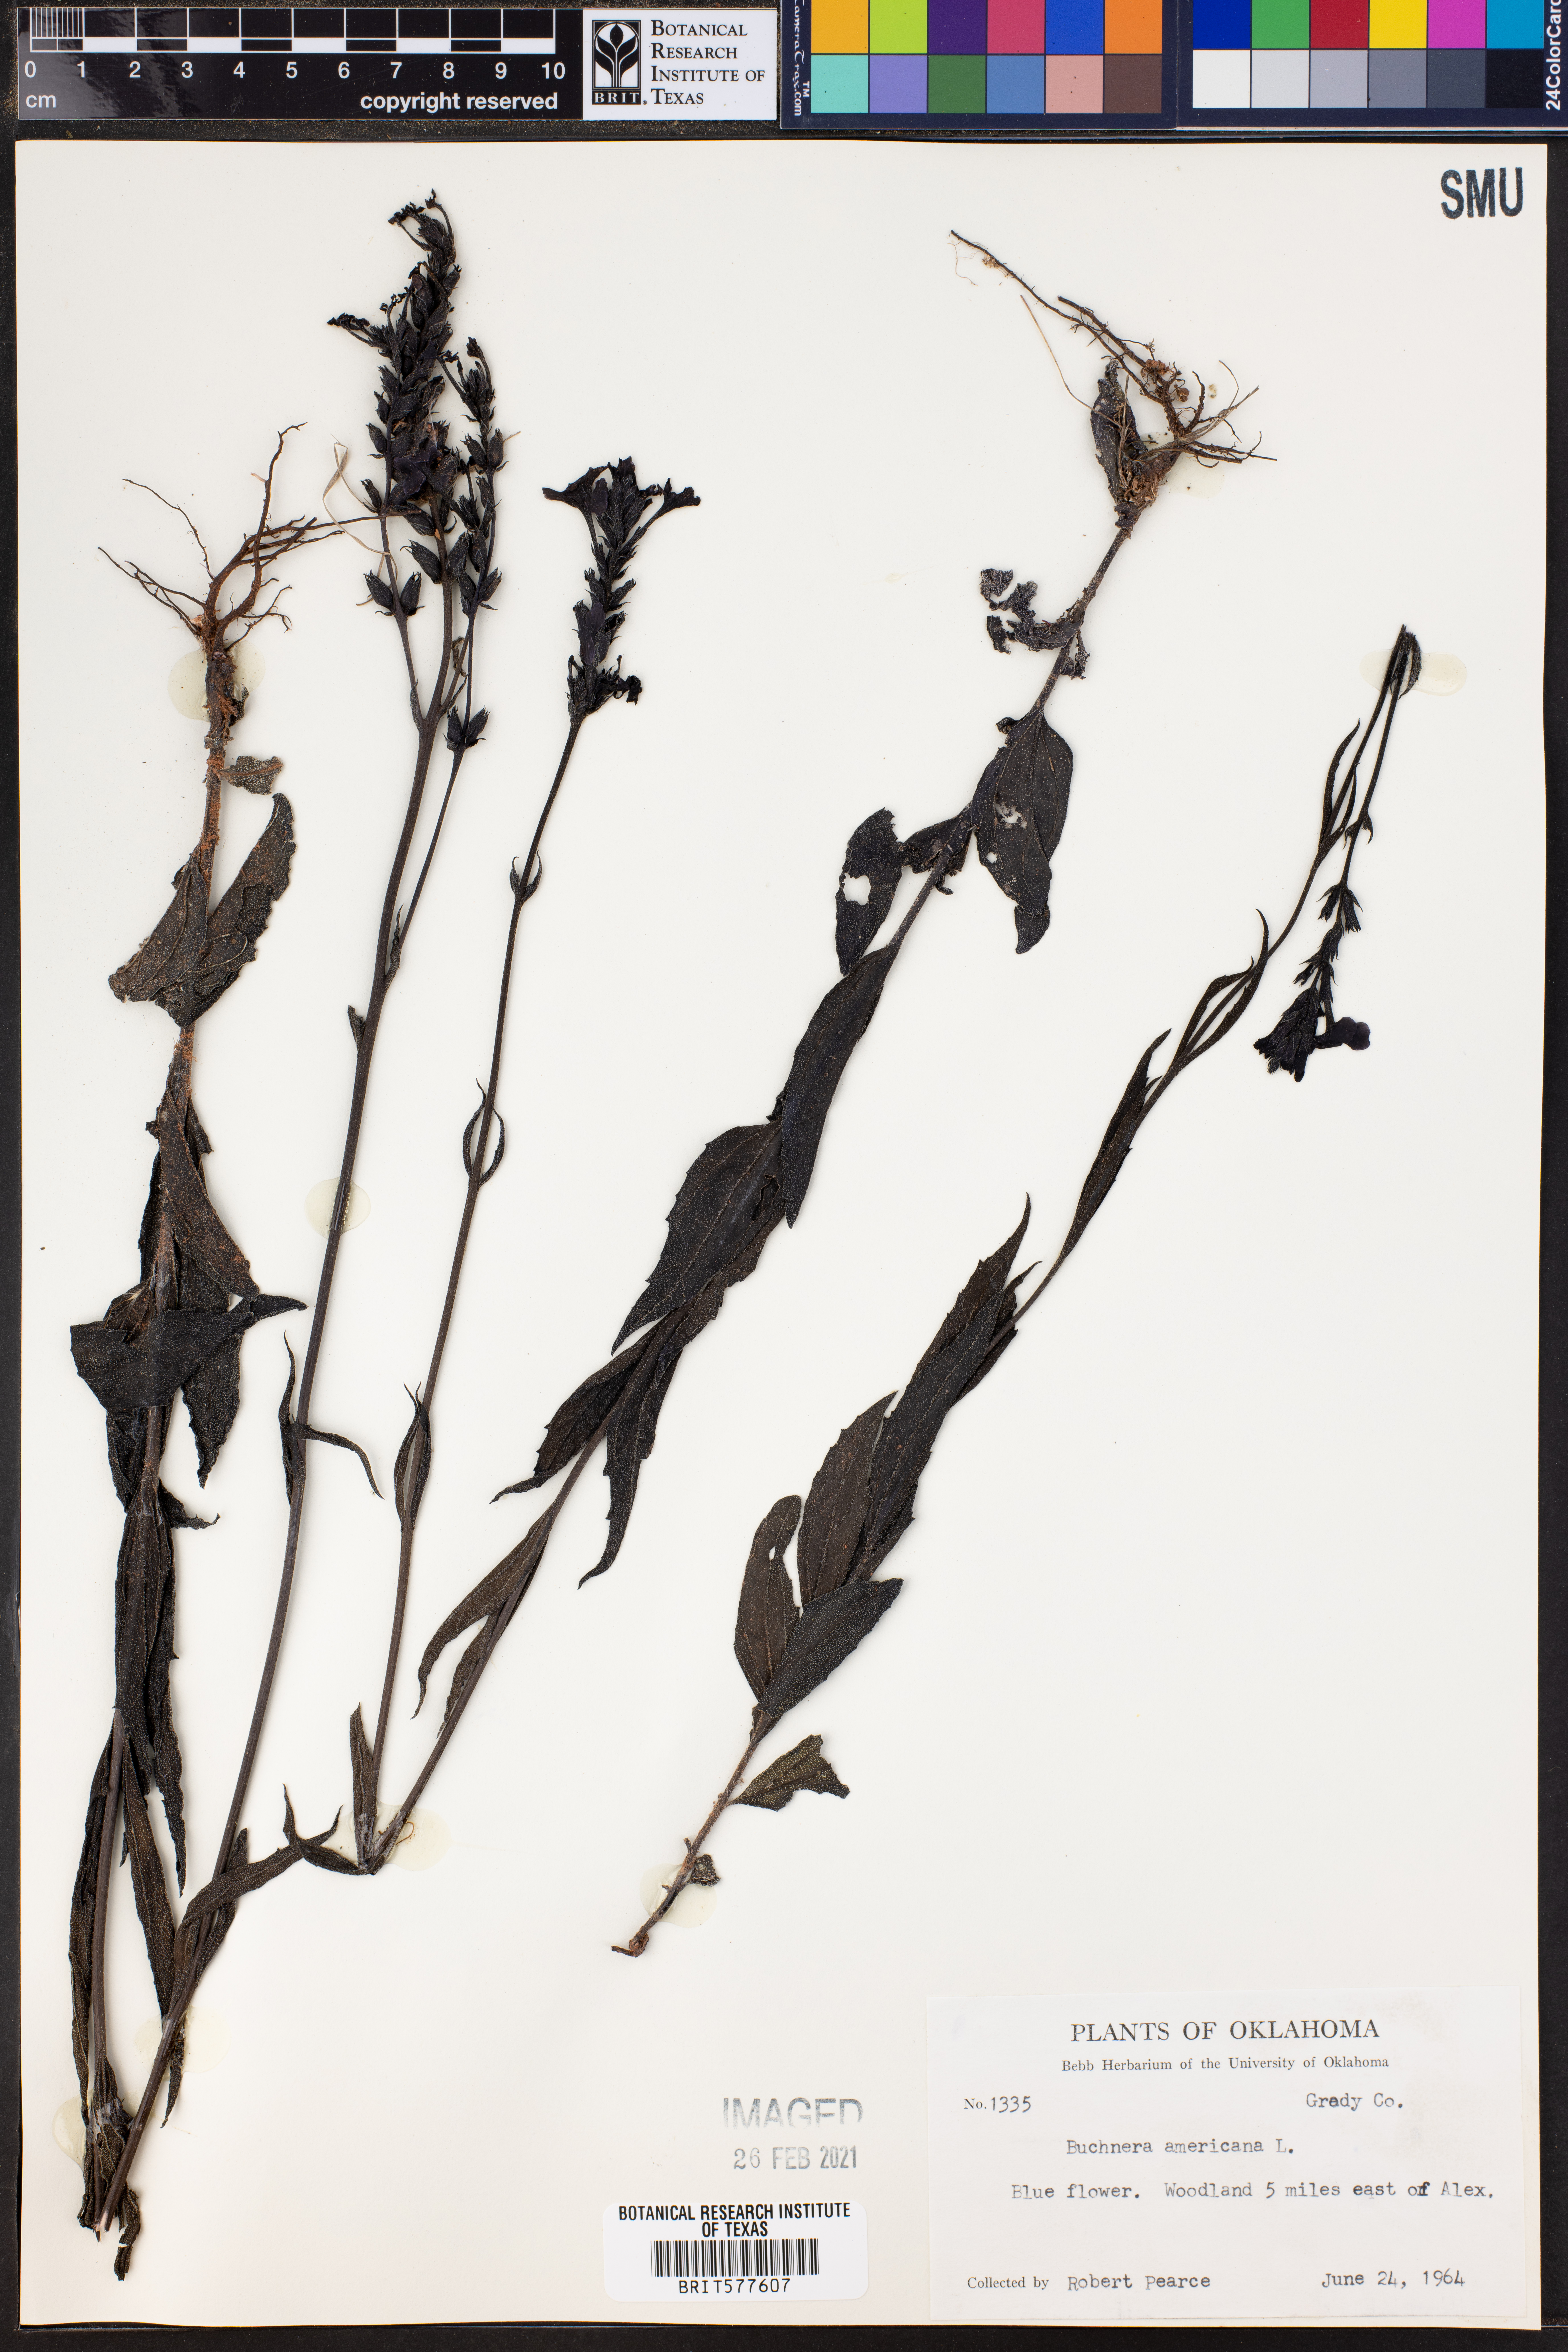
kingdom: Plantae
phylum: Tracheophyta
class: Magnoliopsida
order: Lamiales
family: Orobanchaceae
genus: Buchnera
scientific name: Buchnera americana
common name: American bluehearts
